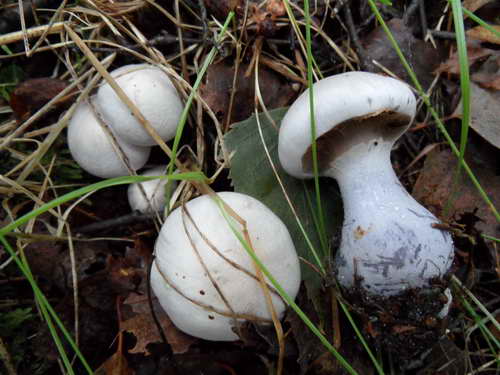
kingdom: Fungi
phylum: Basidiomycota
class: Agaricomycetes
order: Agaricales
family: Cortinariaceae
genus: Cortinarius
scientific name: Cortinarius alboviolaceus
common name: lysviolet slørhat
